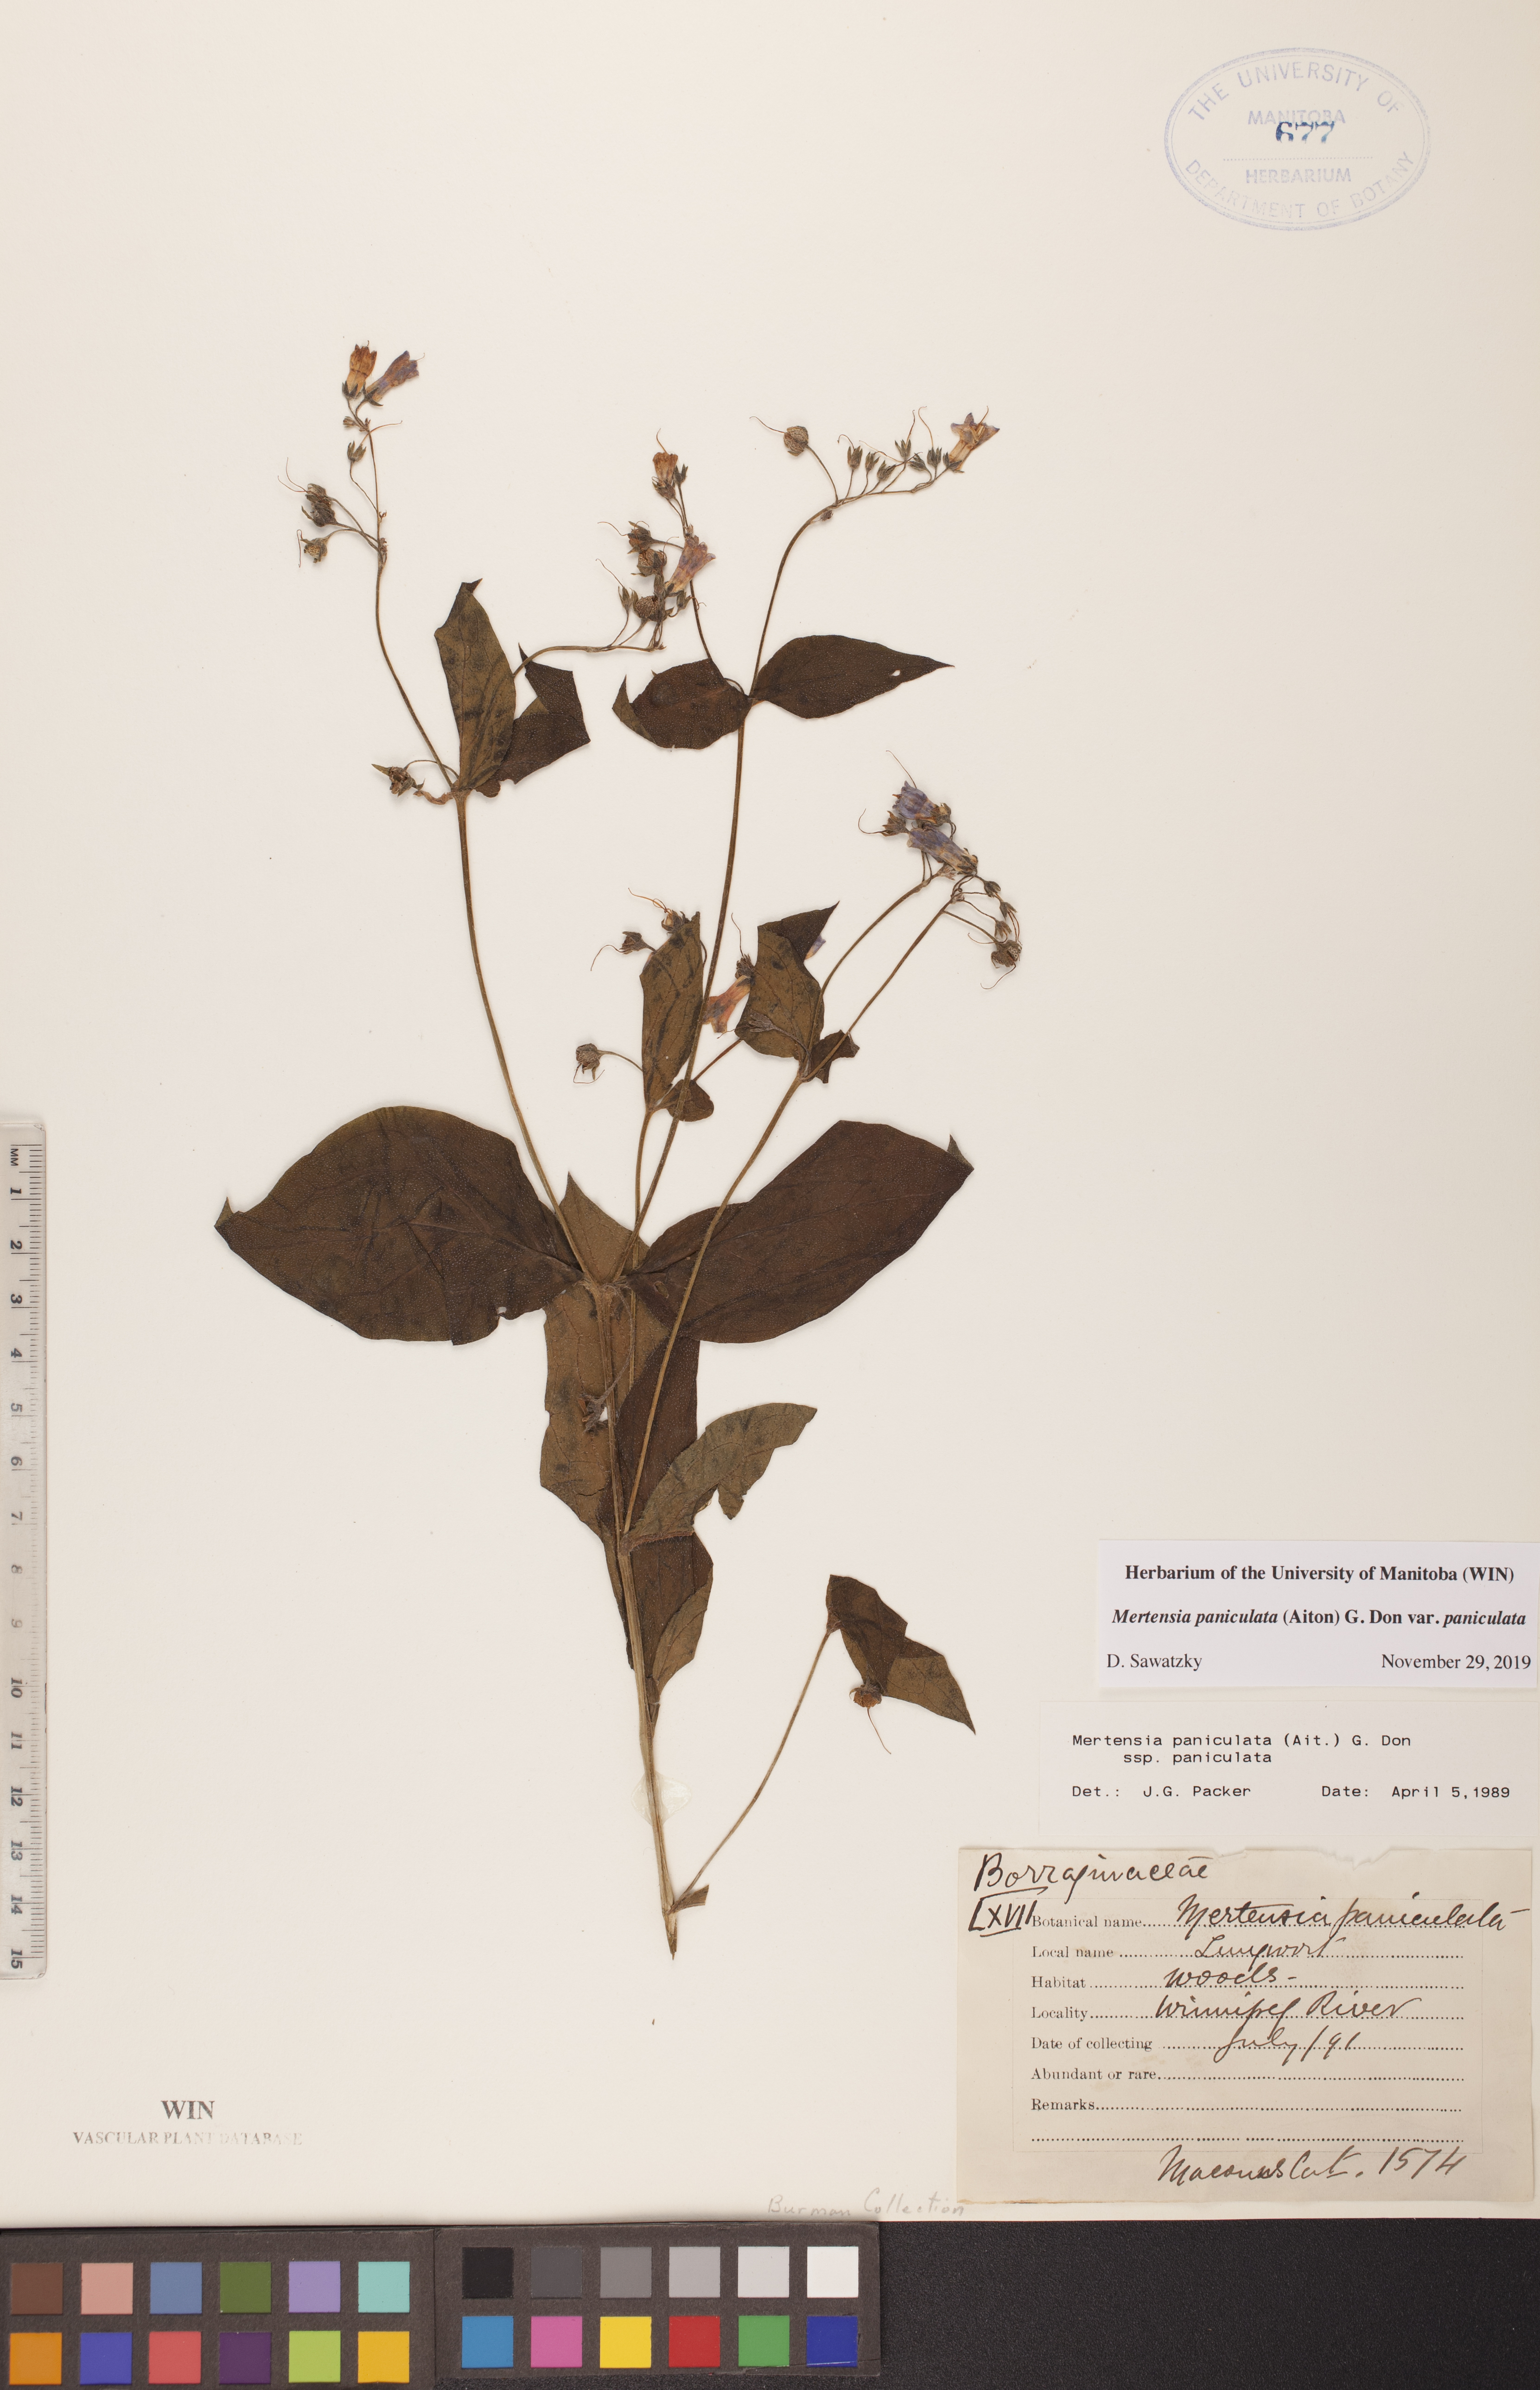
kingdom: Plantae
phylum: Tracheophyta
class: Magnoliopsida
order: Boraginales
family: Boraginaceae
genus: Mertensia
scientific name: Mertensia paniculata
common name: Panicled bluebells
